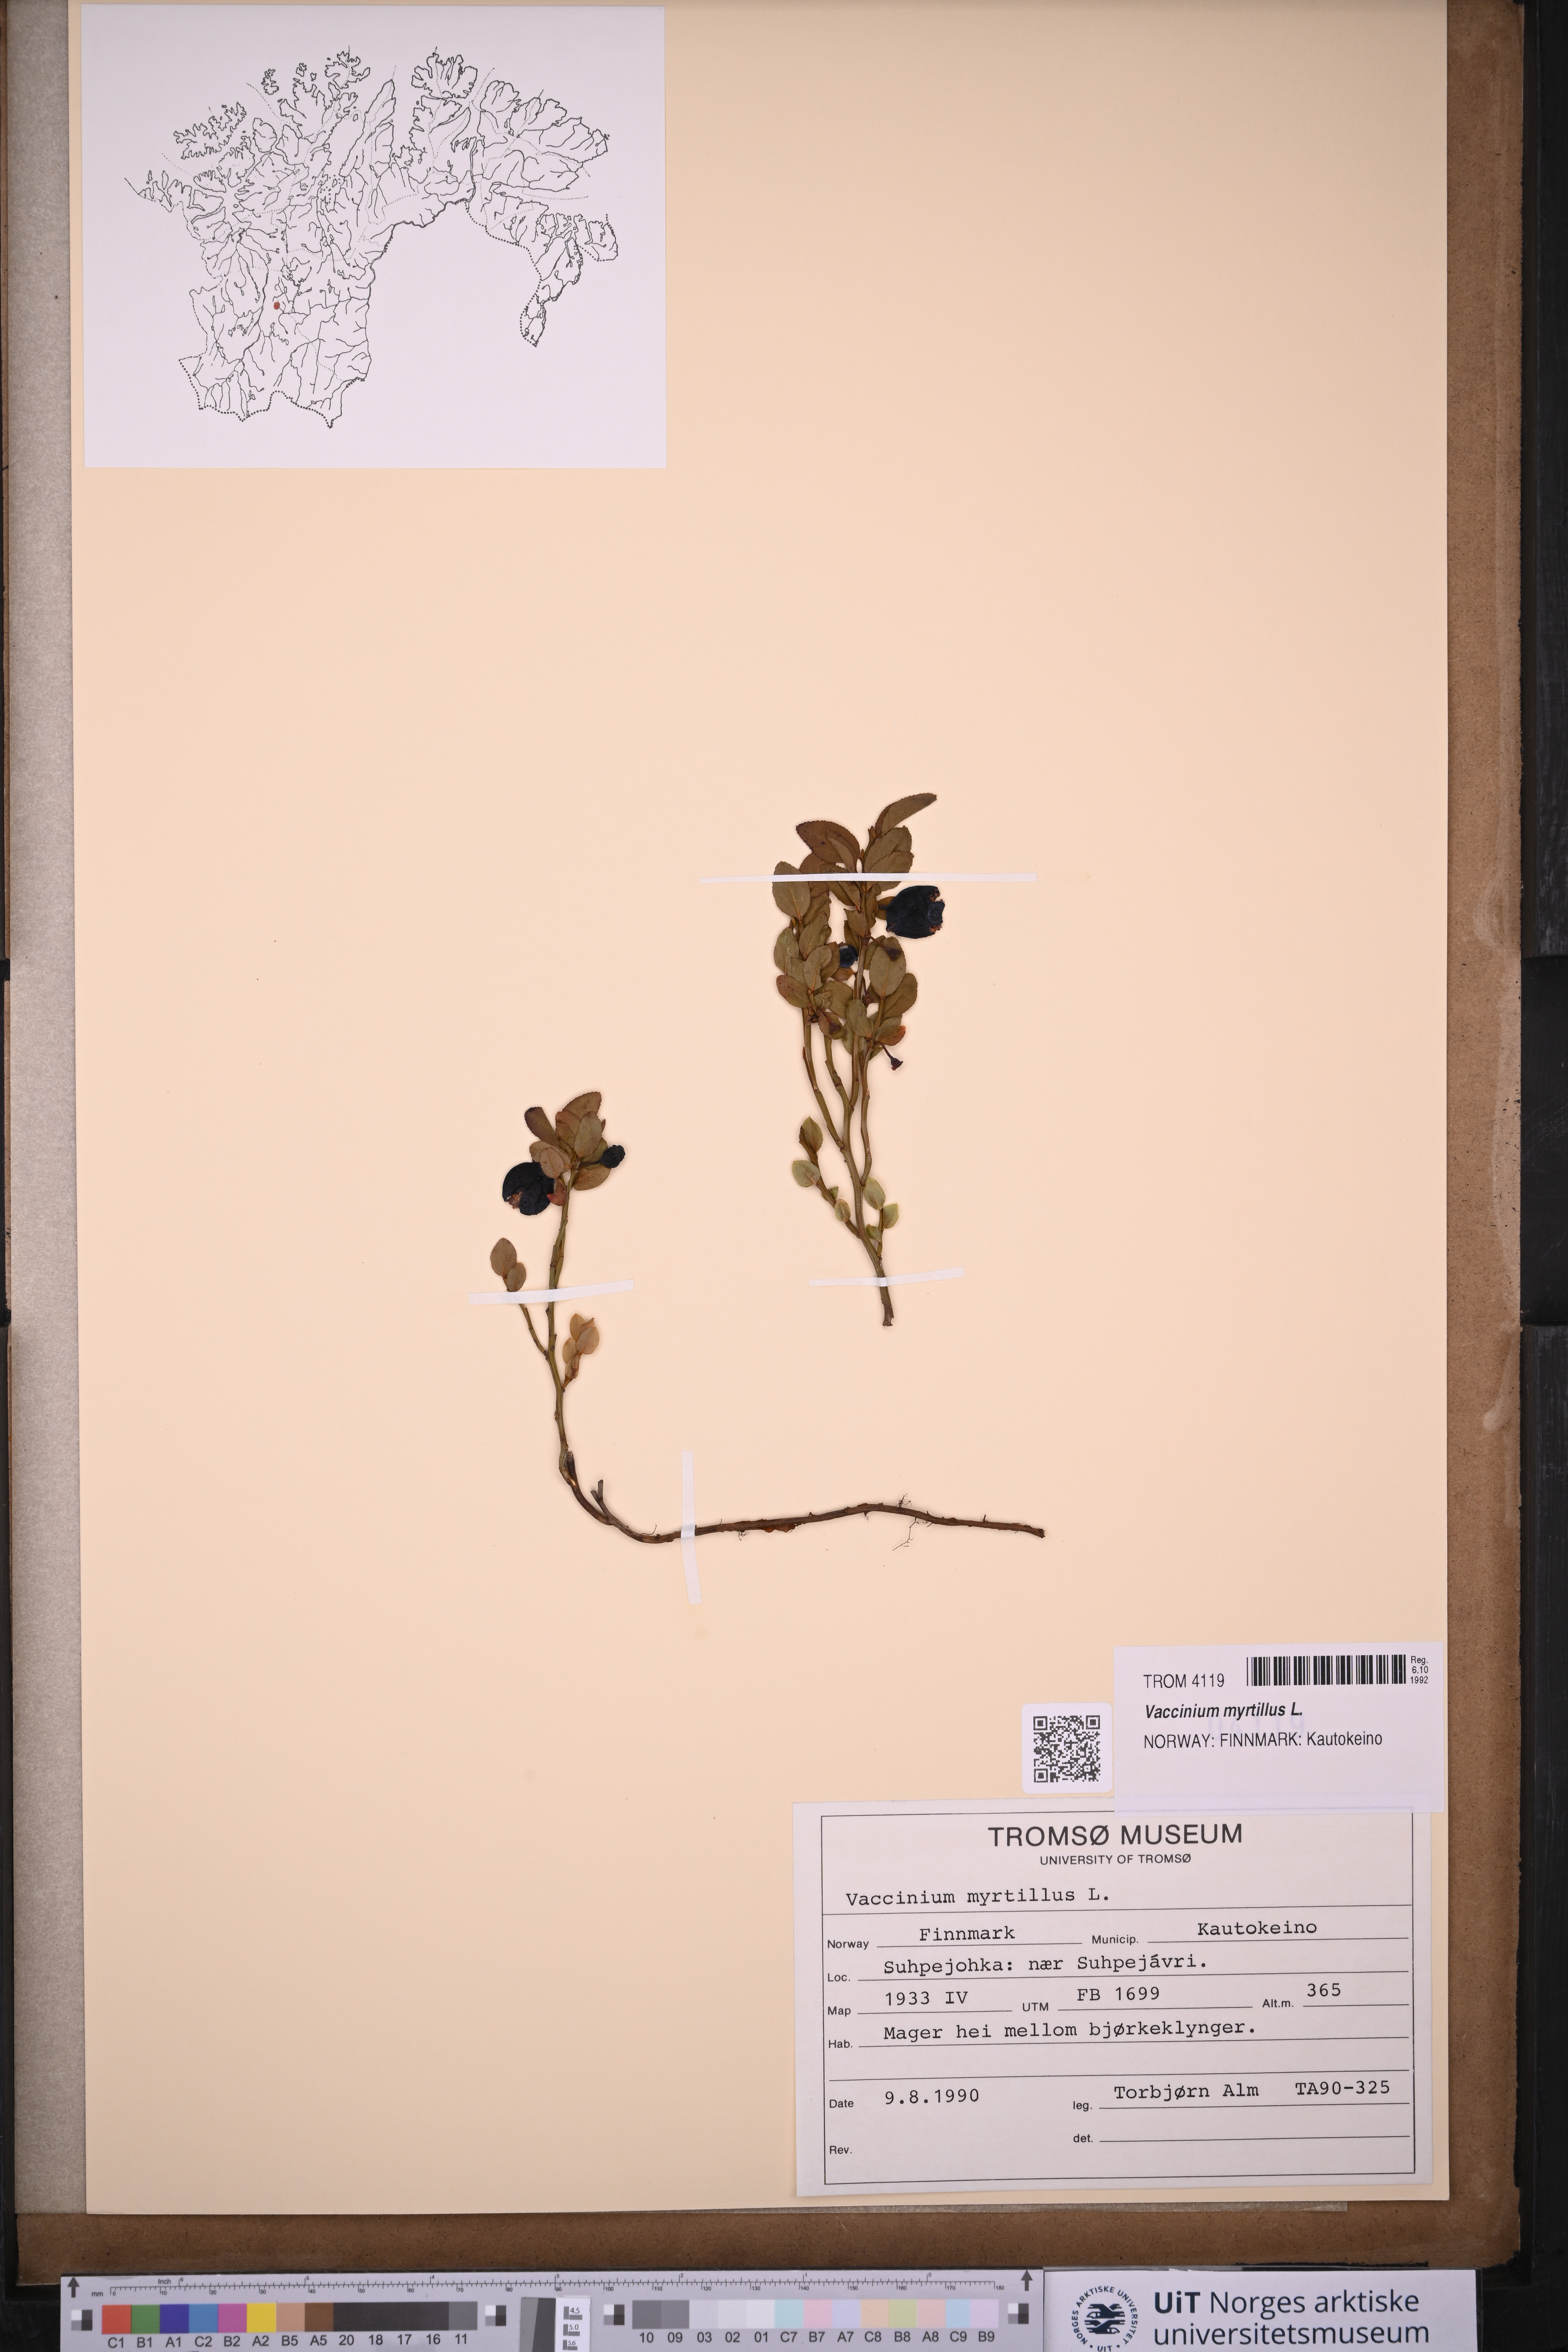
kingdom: Plantae
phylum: Tracheophyta
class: Magnoliopsida
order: Ericales
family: Ericaceae
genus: Vaccinium
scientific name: Vaccinium myrtillus
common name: Bilberry
